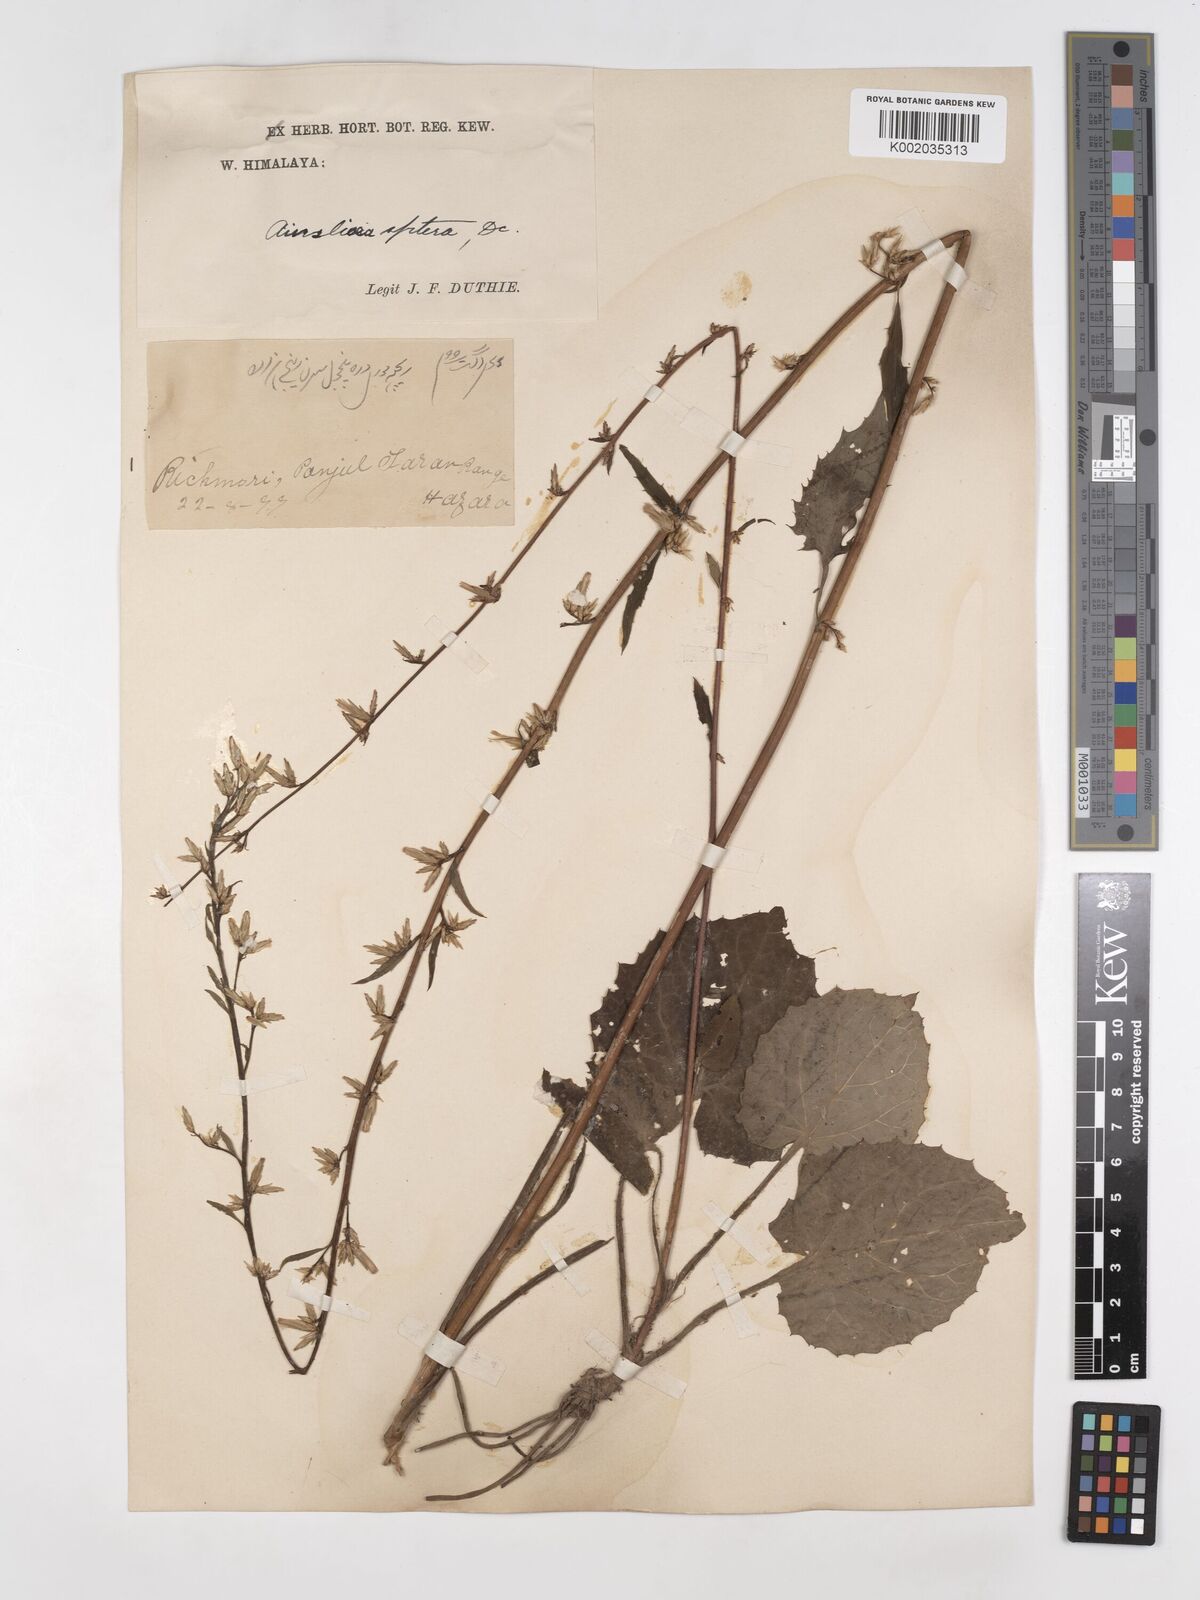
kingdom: Plantae
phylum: Tracheophyta
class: Magnoliopsida
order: Asterales
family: Asteraceae
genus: Ainsliaea
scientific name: Ainsliaea aptera
